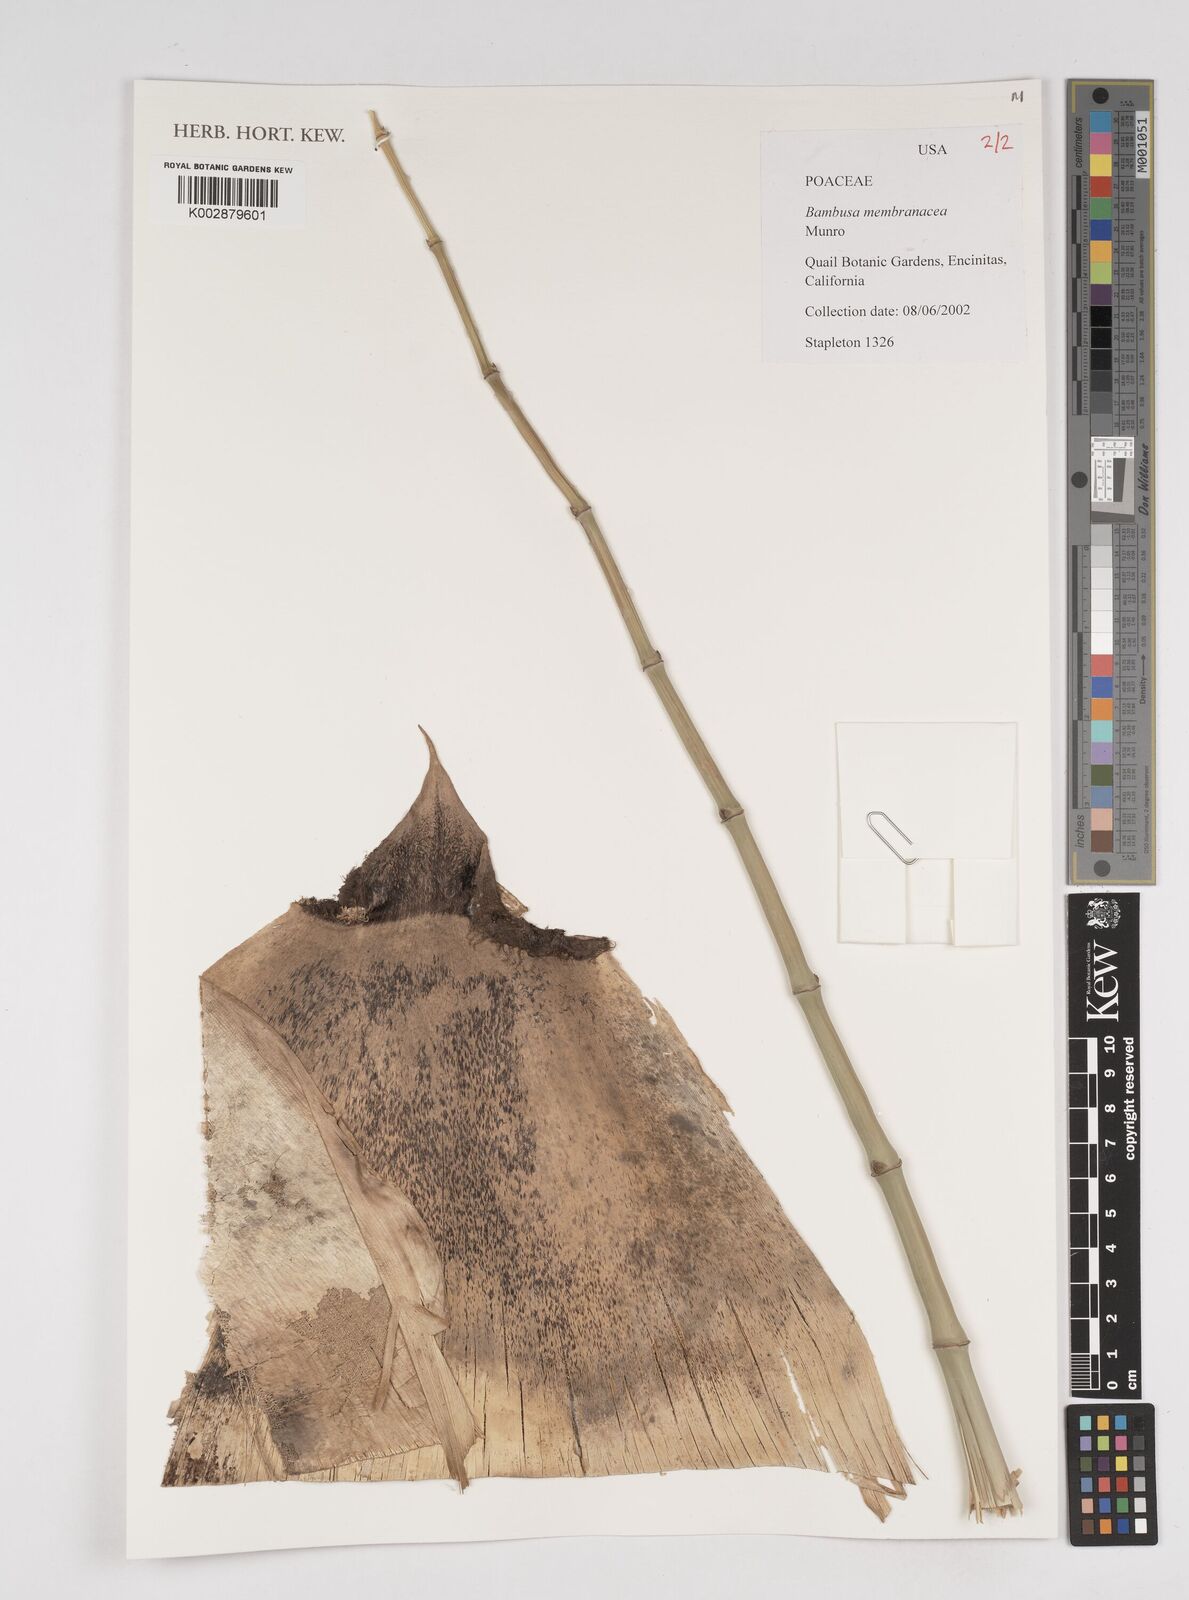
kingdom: Plantae
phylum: Tracheophyta
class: Liliopsida
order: Poales
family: Poaceae
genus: Dendrocalamus
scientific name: Dendrocalamus membranaceus
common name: White bamboo
